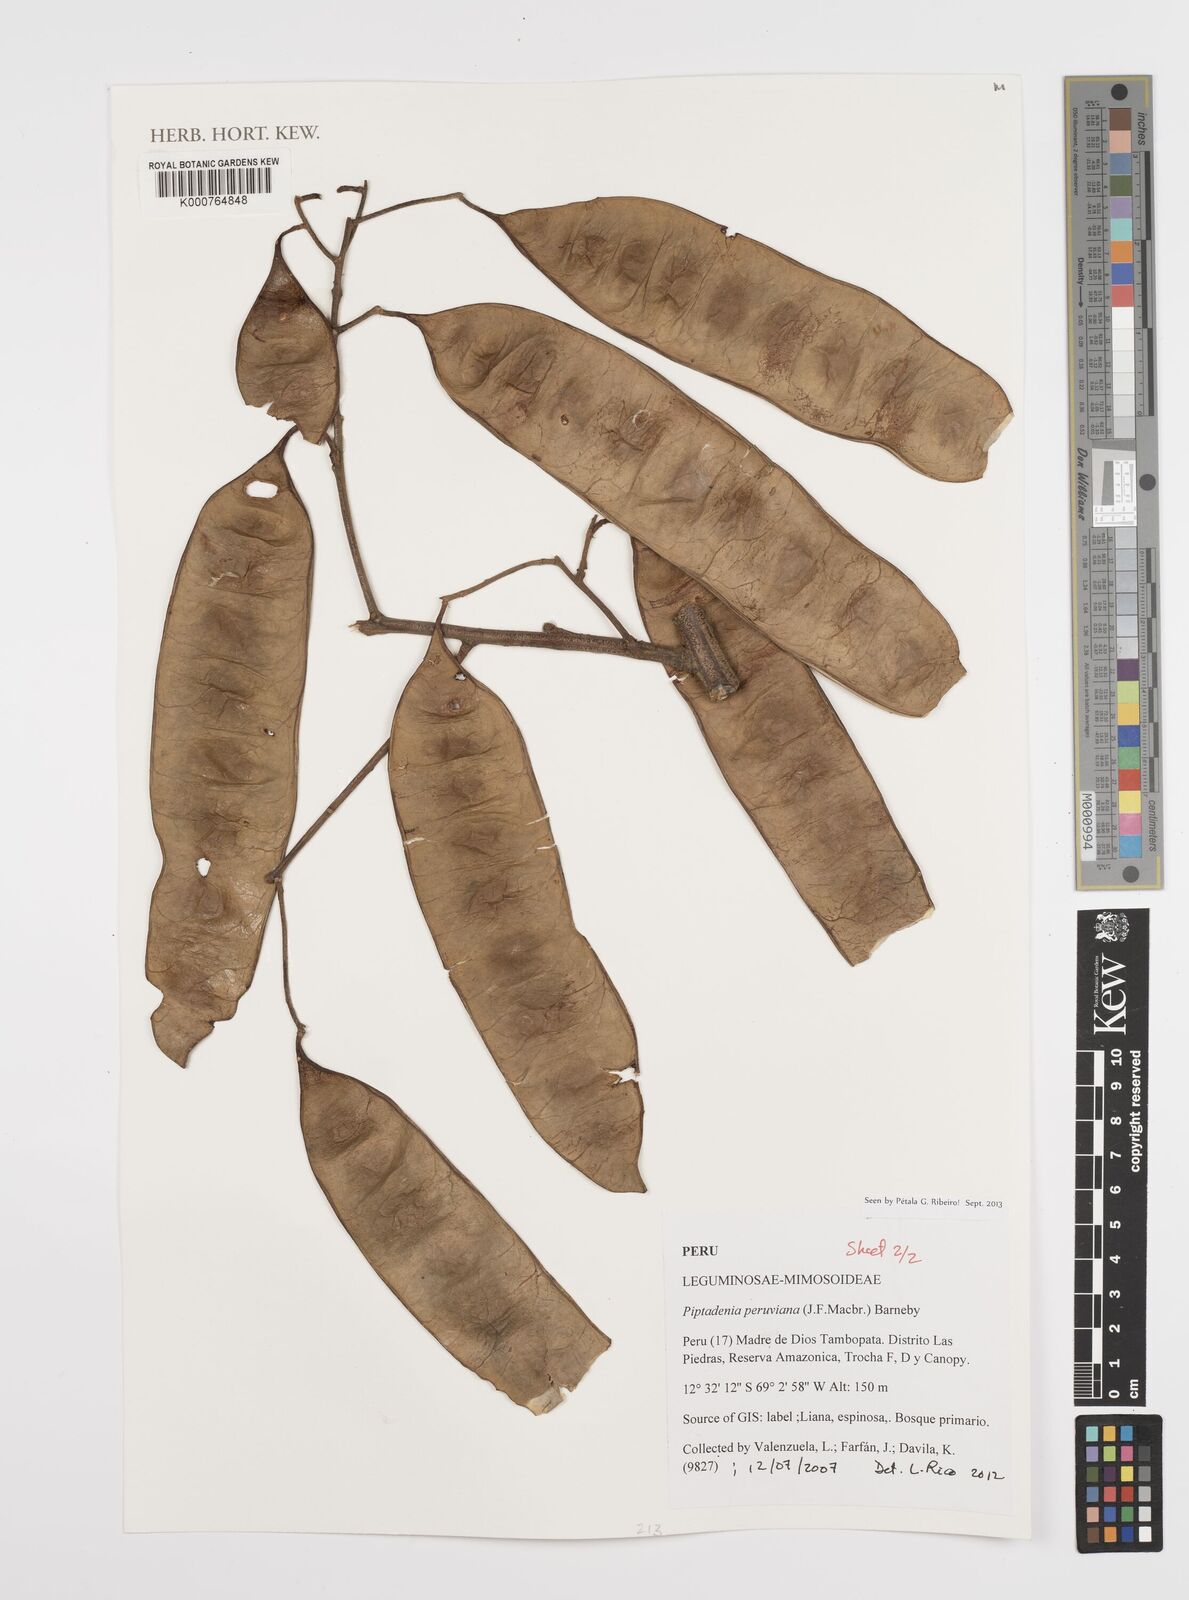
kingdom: Plantae
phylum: Tracheophyta
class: Magnoliopsida
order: Fabales
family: Fabaceae
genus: Piptadenia
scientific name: Piptadenia peruviana
